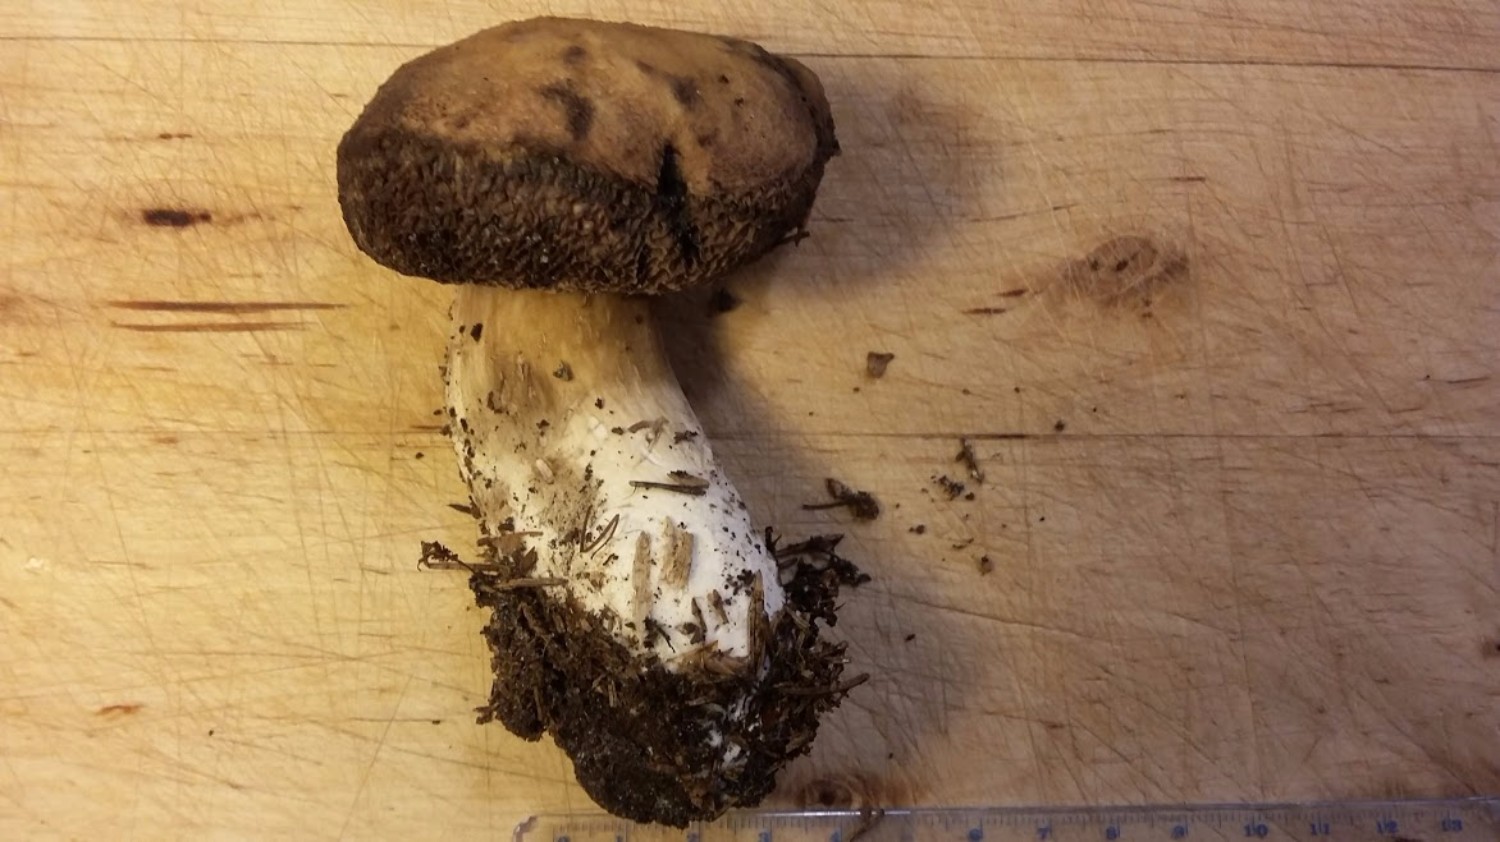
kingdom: Fungi
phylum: Basidiomycota
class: Agaricomycetes
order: Boletales
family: Boletaceae
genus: Porphyrellus
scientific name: Porphyrellus porphyrosporus
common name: sodrørhat
